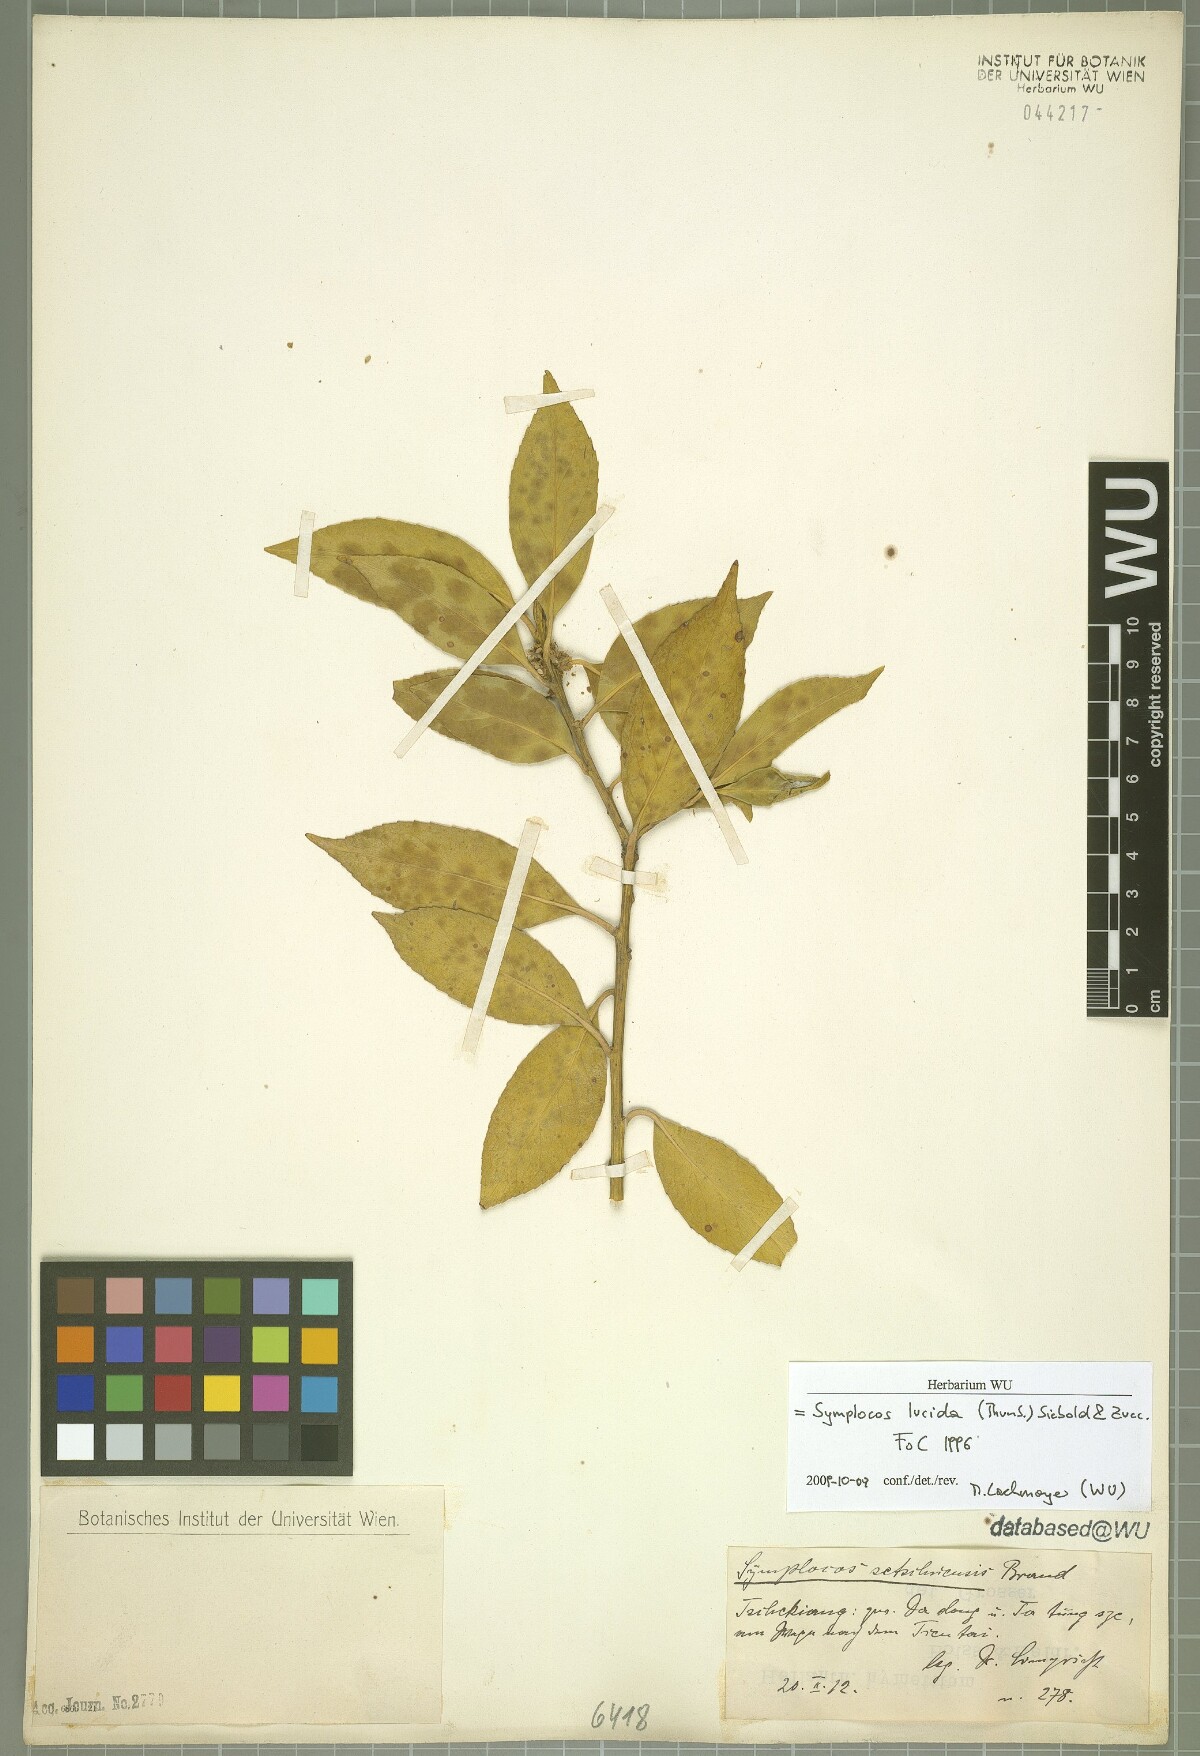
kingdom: Plantae
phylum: Tracheophyta
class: Magnoliopsida
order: Ericales
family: Symplocaceae
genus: Symplocos
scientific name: Symplocos nakaharae
